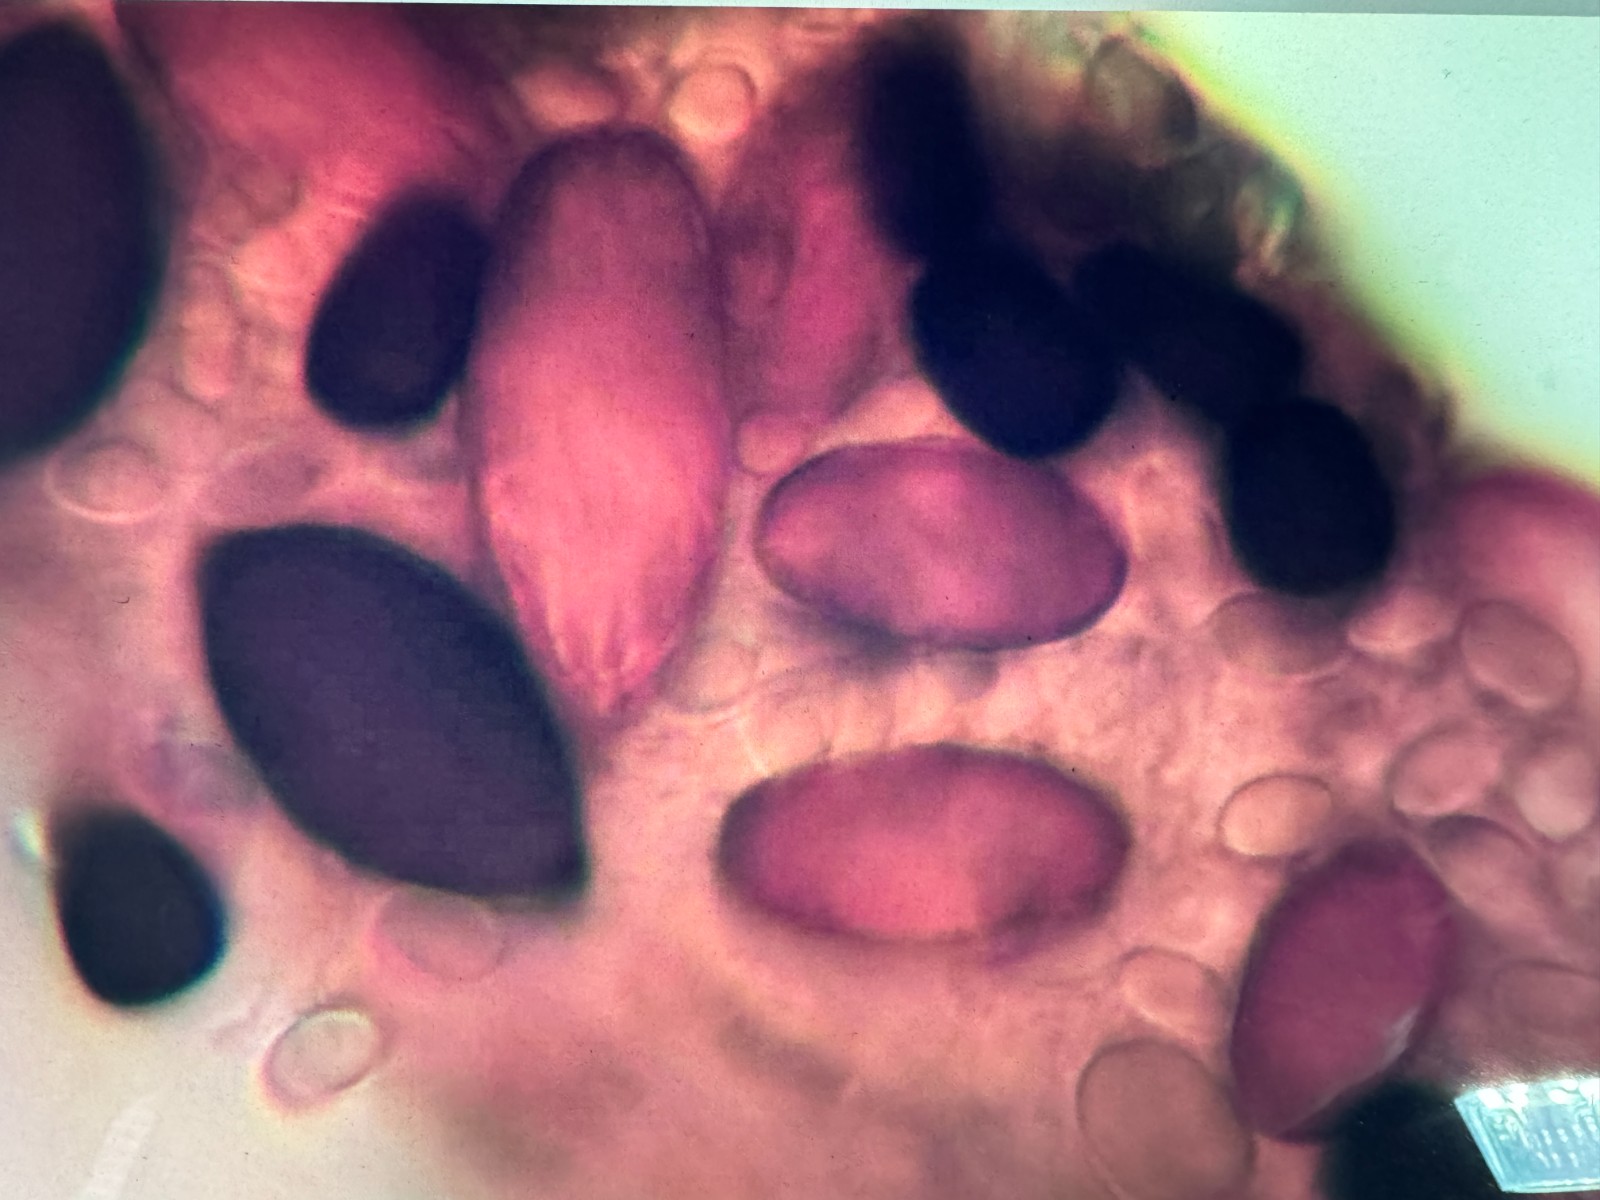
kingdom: Fungi
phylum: Ascomycota
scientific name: Ascomycota
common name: sæksvampe
